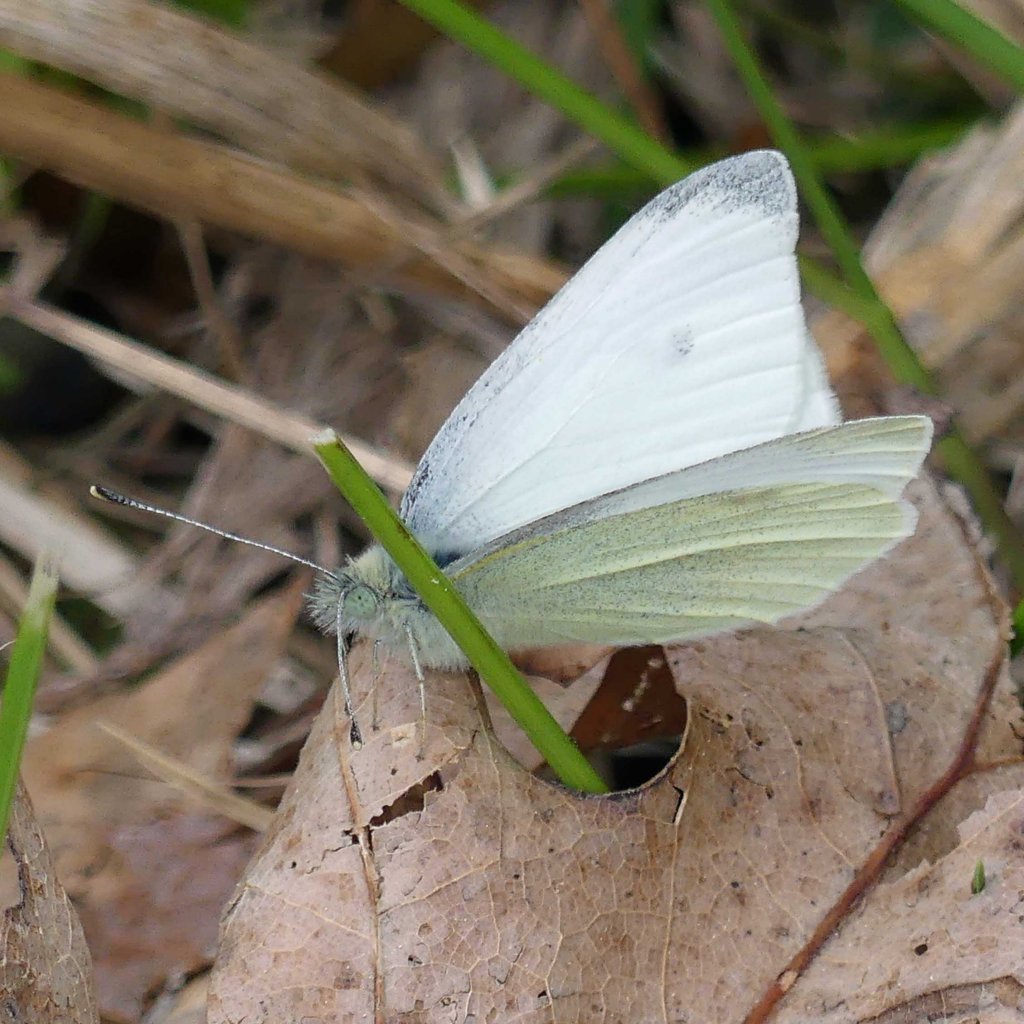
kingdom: Animalia
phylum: Arthropoda
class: Insecta
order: Lepidoptera
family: Pieridae
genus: Pieris
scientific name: Pieris rapae
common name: Cabbage White
